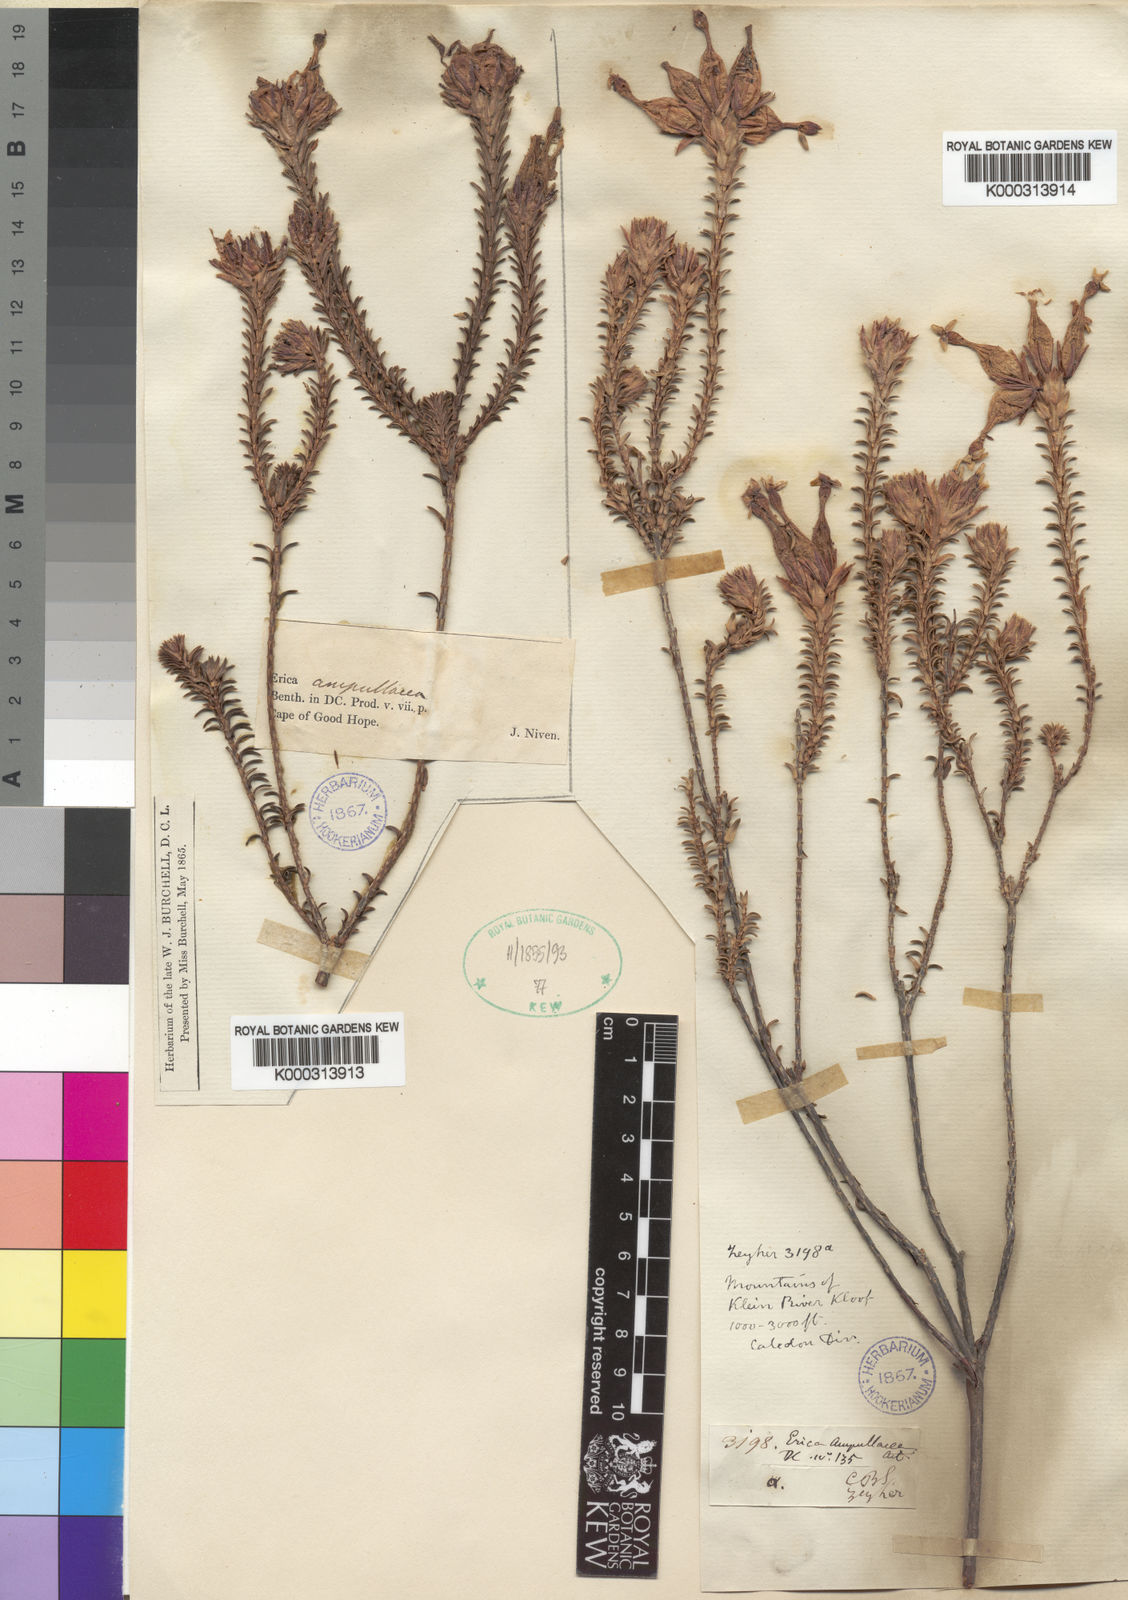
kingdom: Plantae
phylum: Tracheophyta
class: Magnoliopsida
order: Ericales
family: Ericaceae
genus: Erica
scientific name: Erica ampullacea
